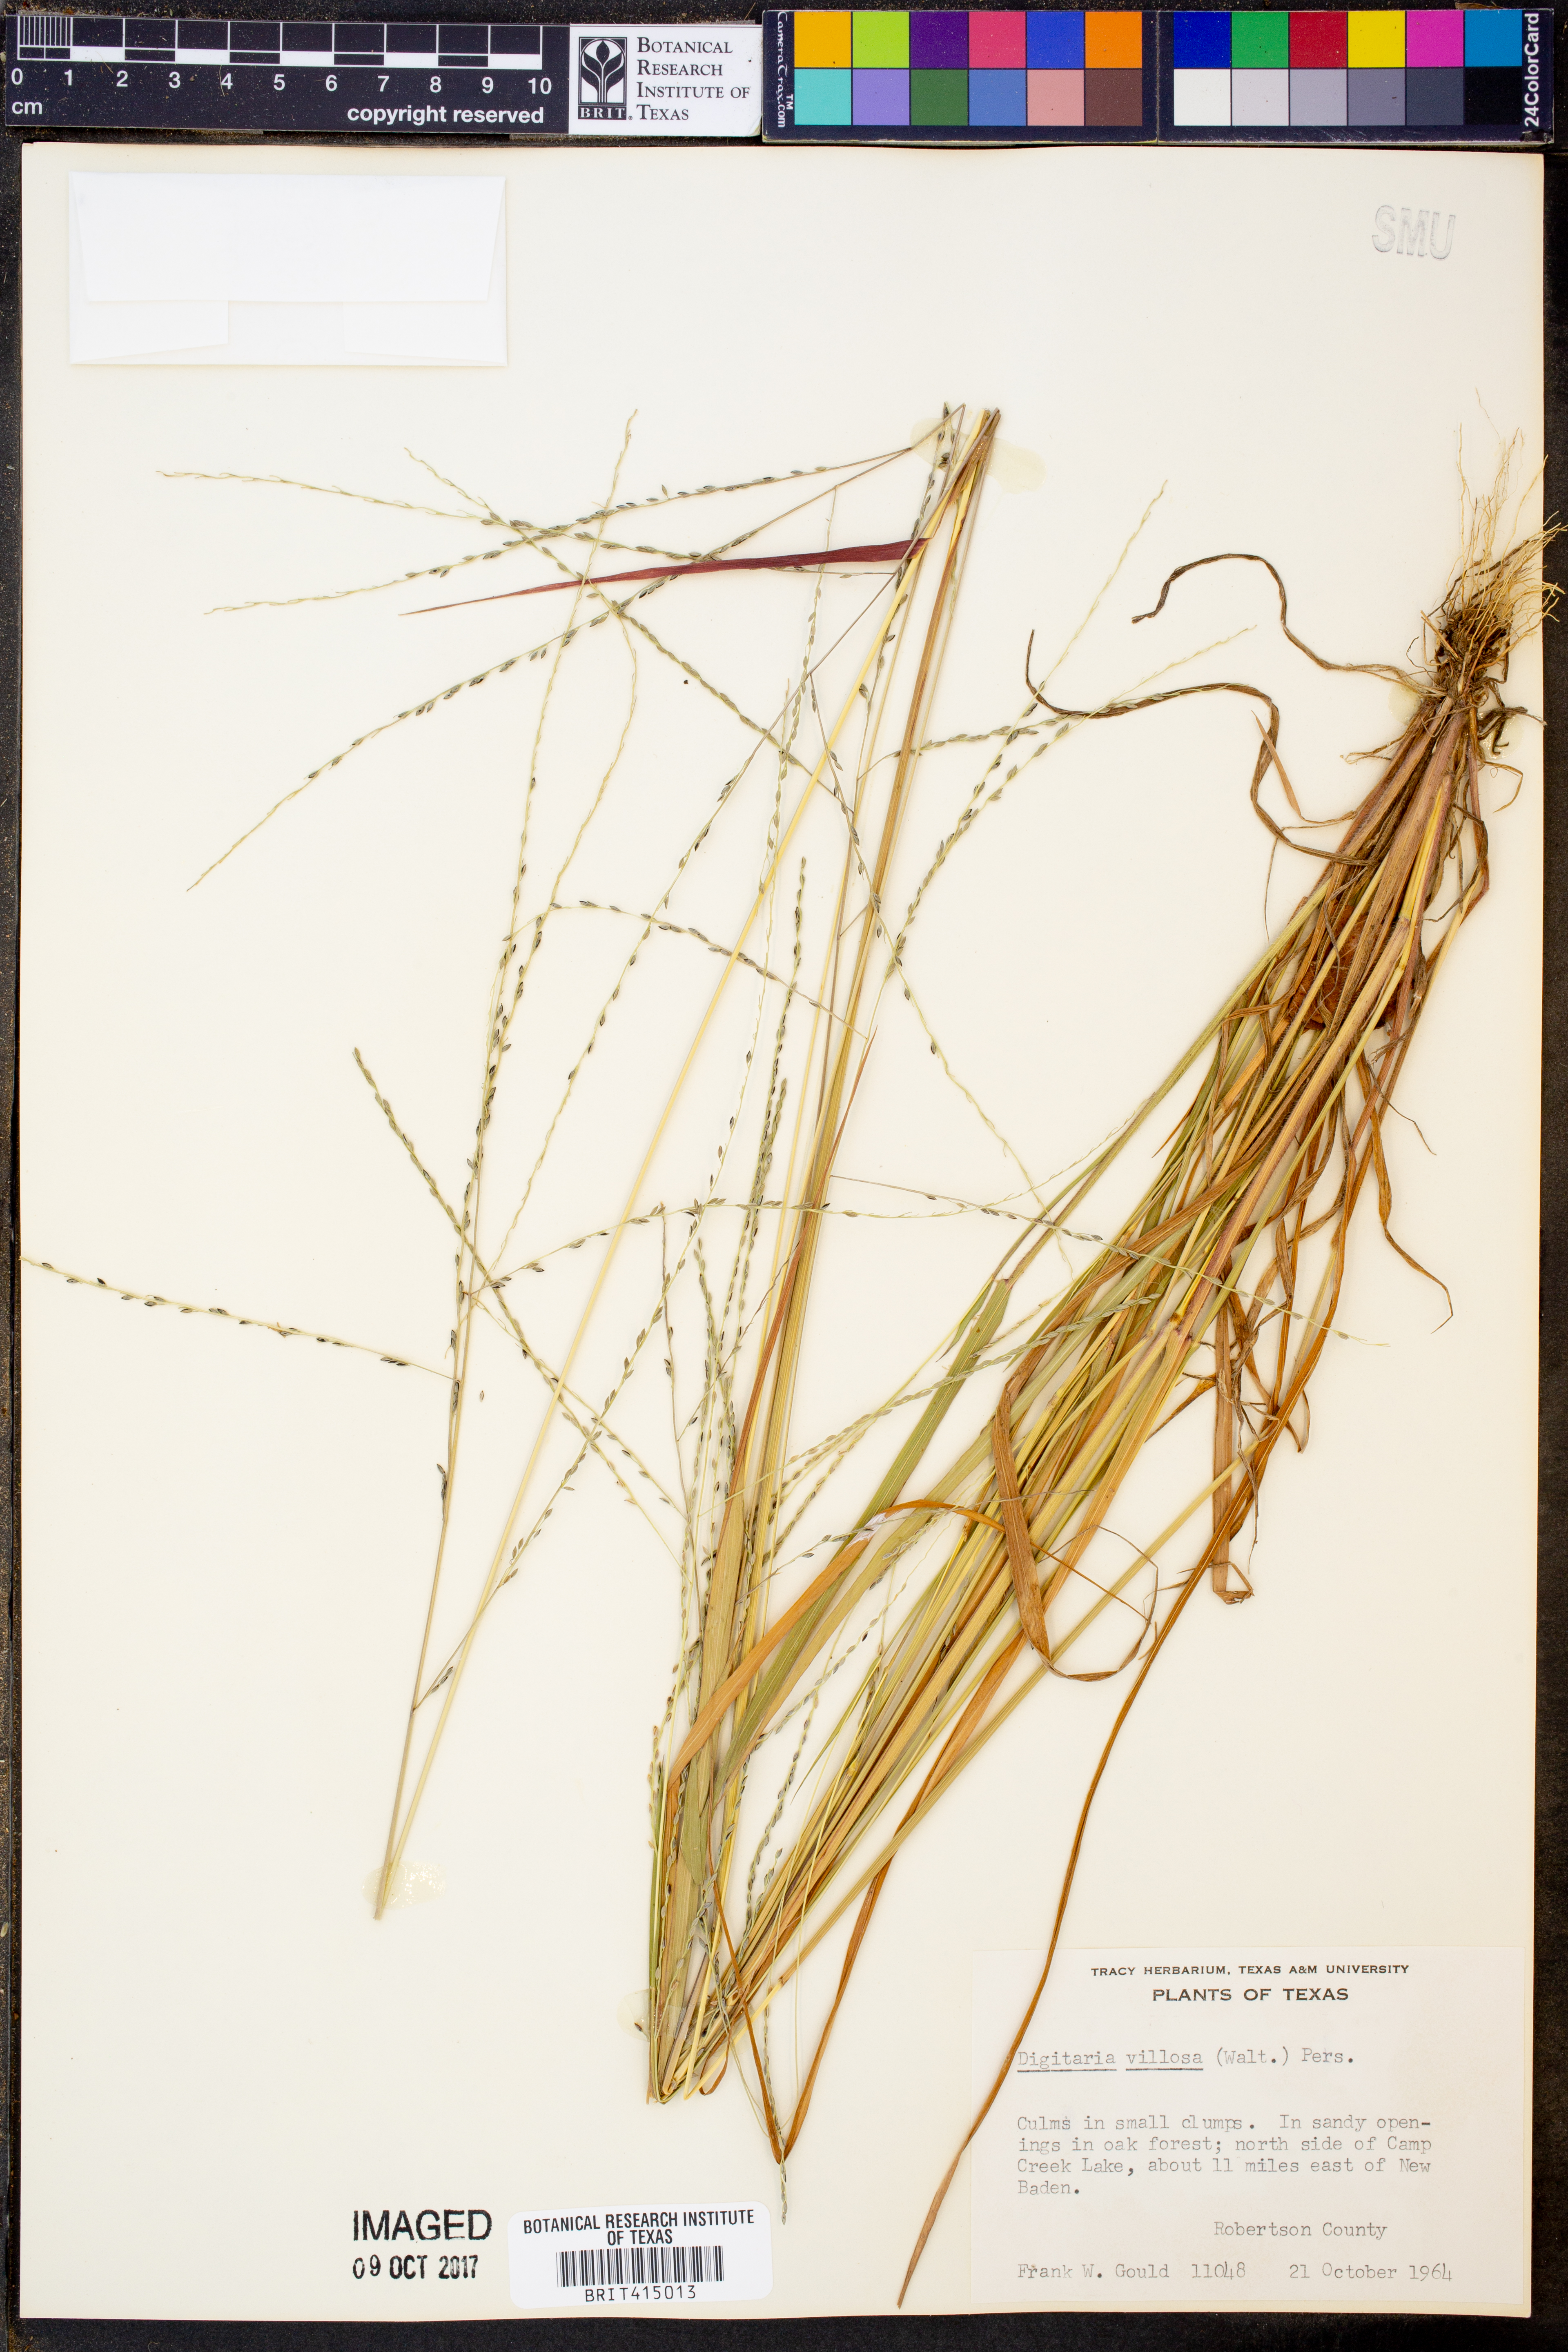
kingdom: Plantae
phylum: Tracheophyta
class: Liliopsida
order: Poales
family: Poaceae
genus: Digitaria
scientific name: Digitaria villosa
